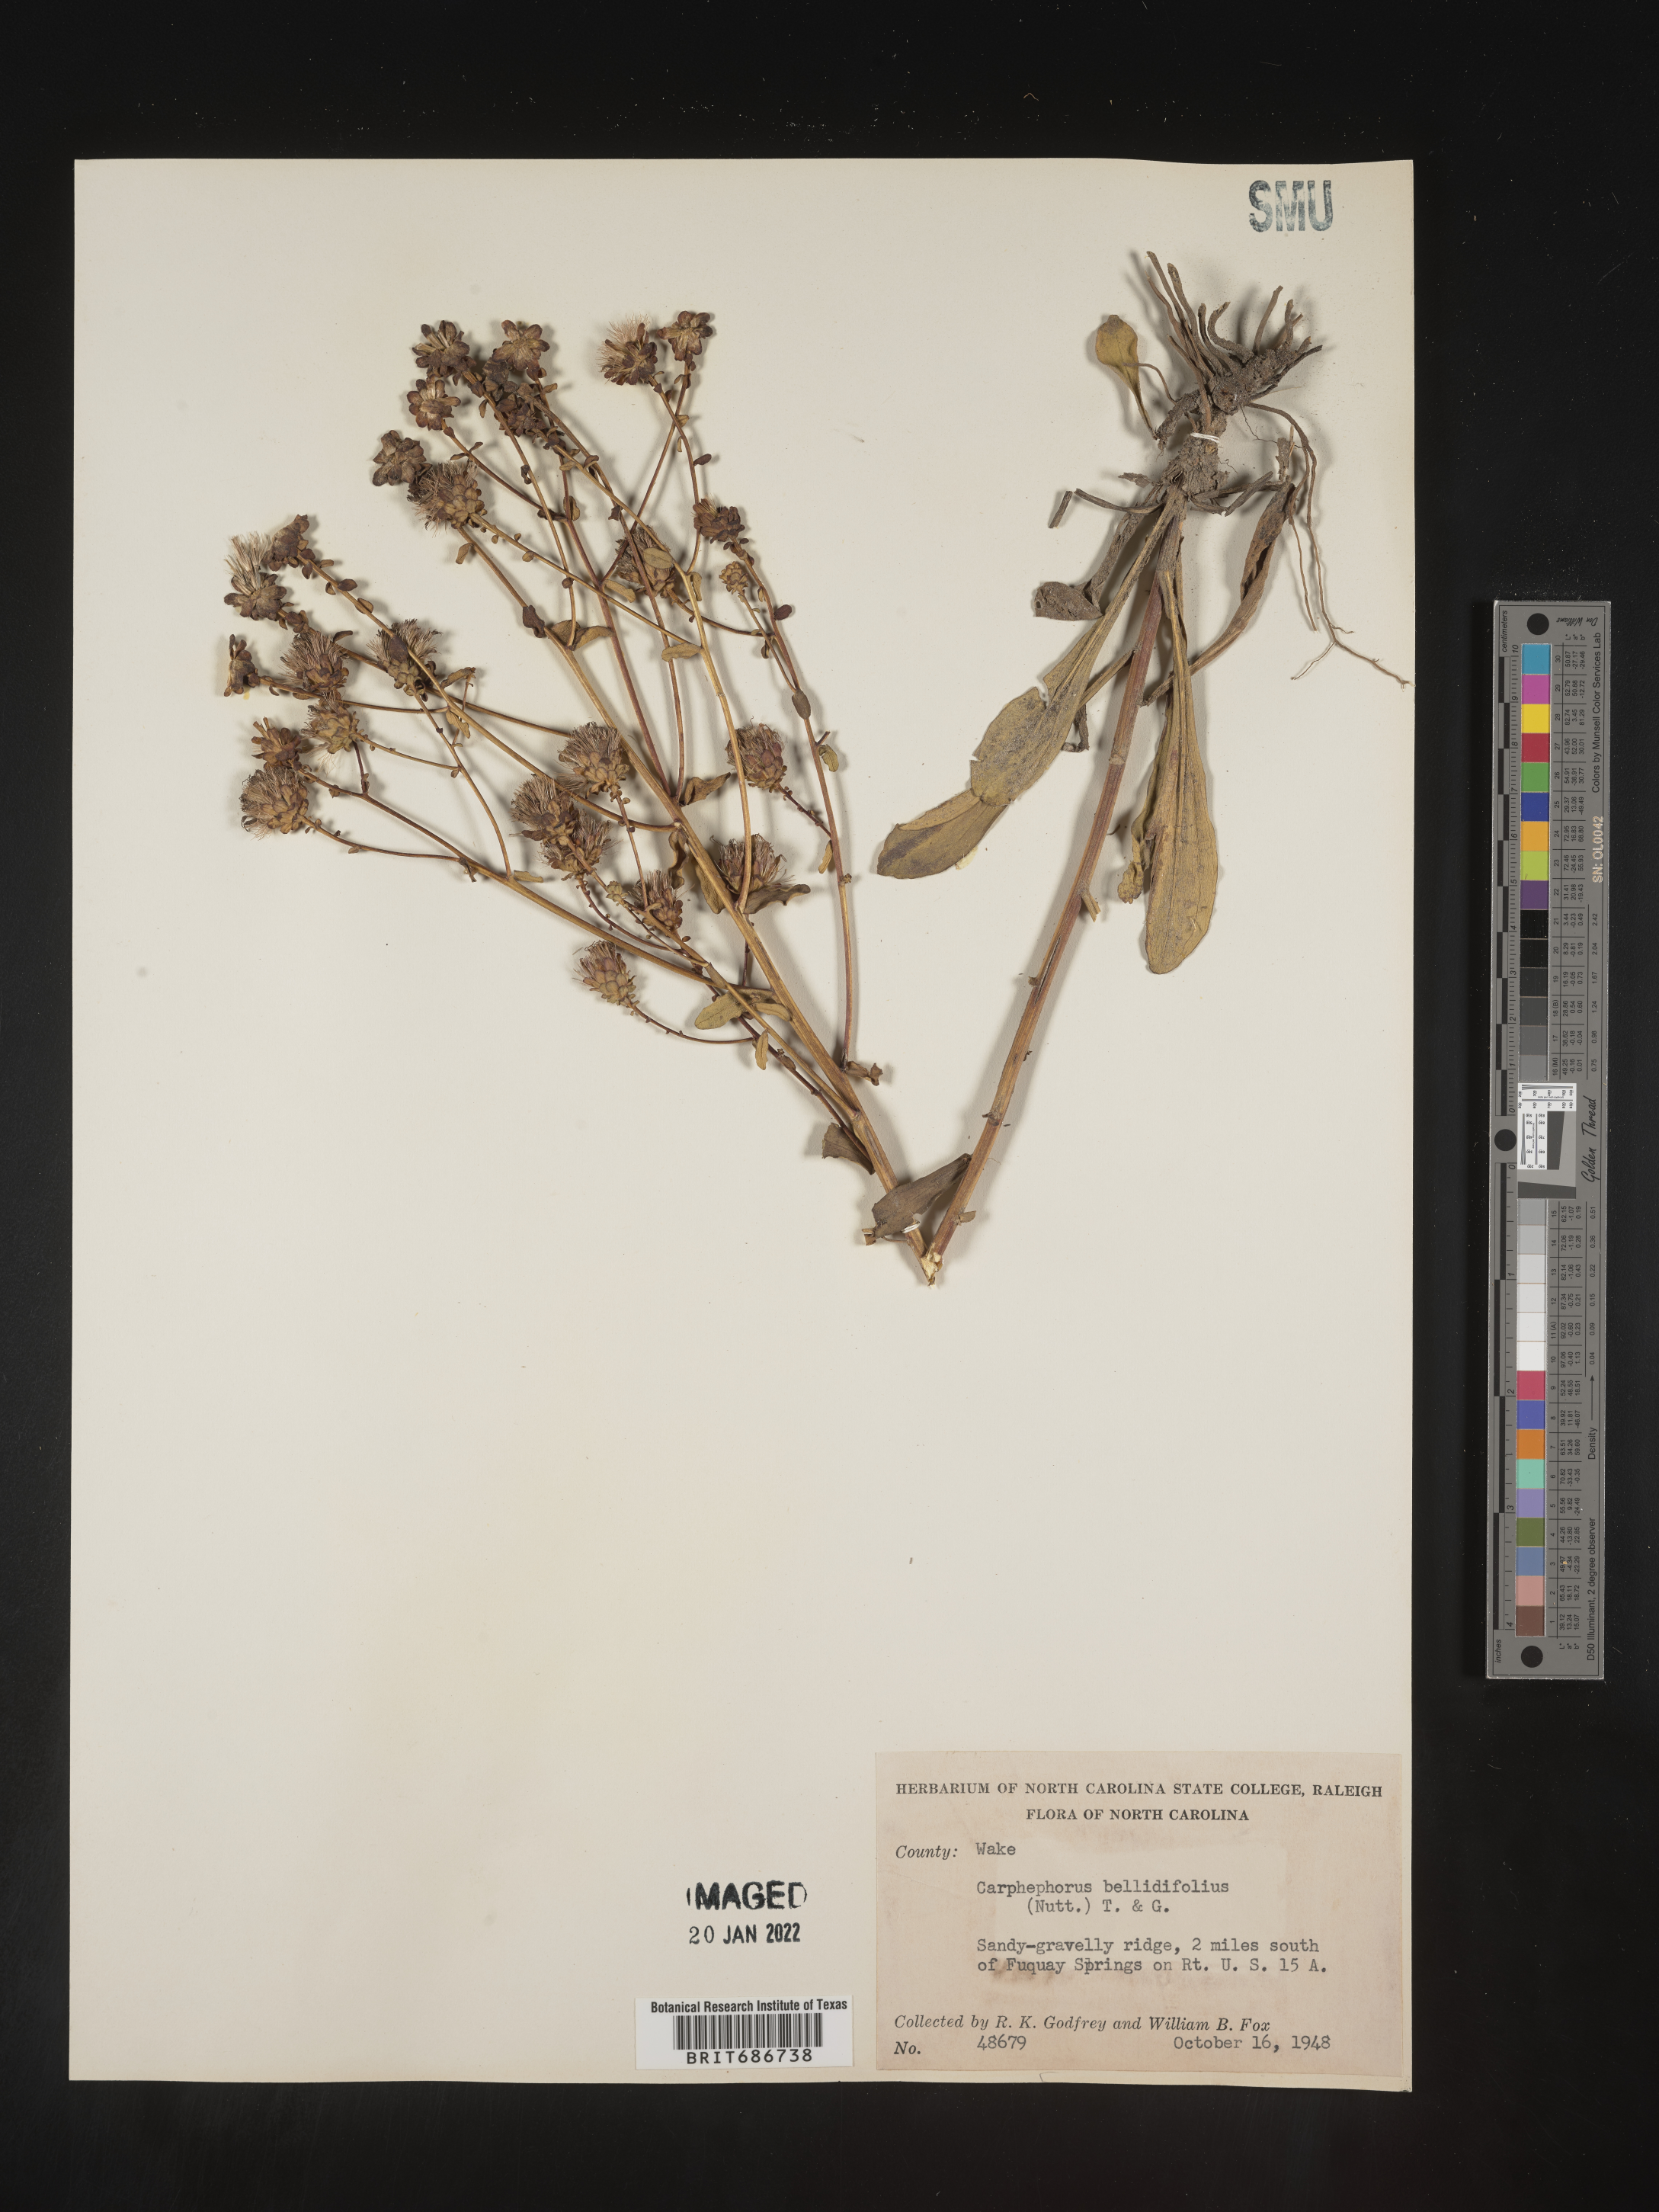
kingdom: Plantae
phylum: Tracheophyta
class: Magnoliopsida
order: Asterales
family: Asteraceae
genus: Carphephorus
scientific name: Carphephorus bellidifolius
